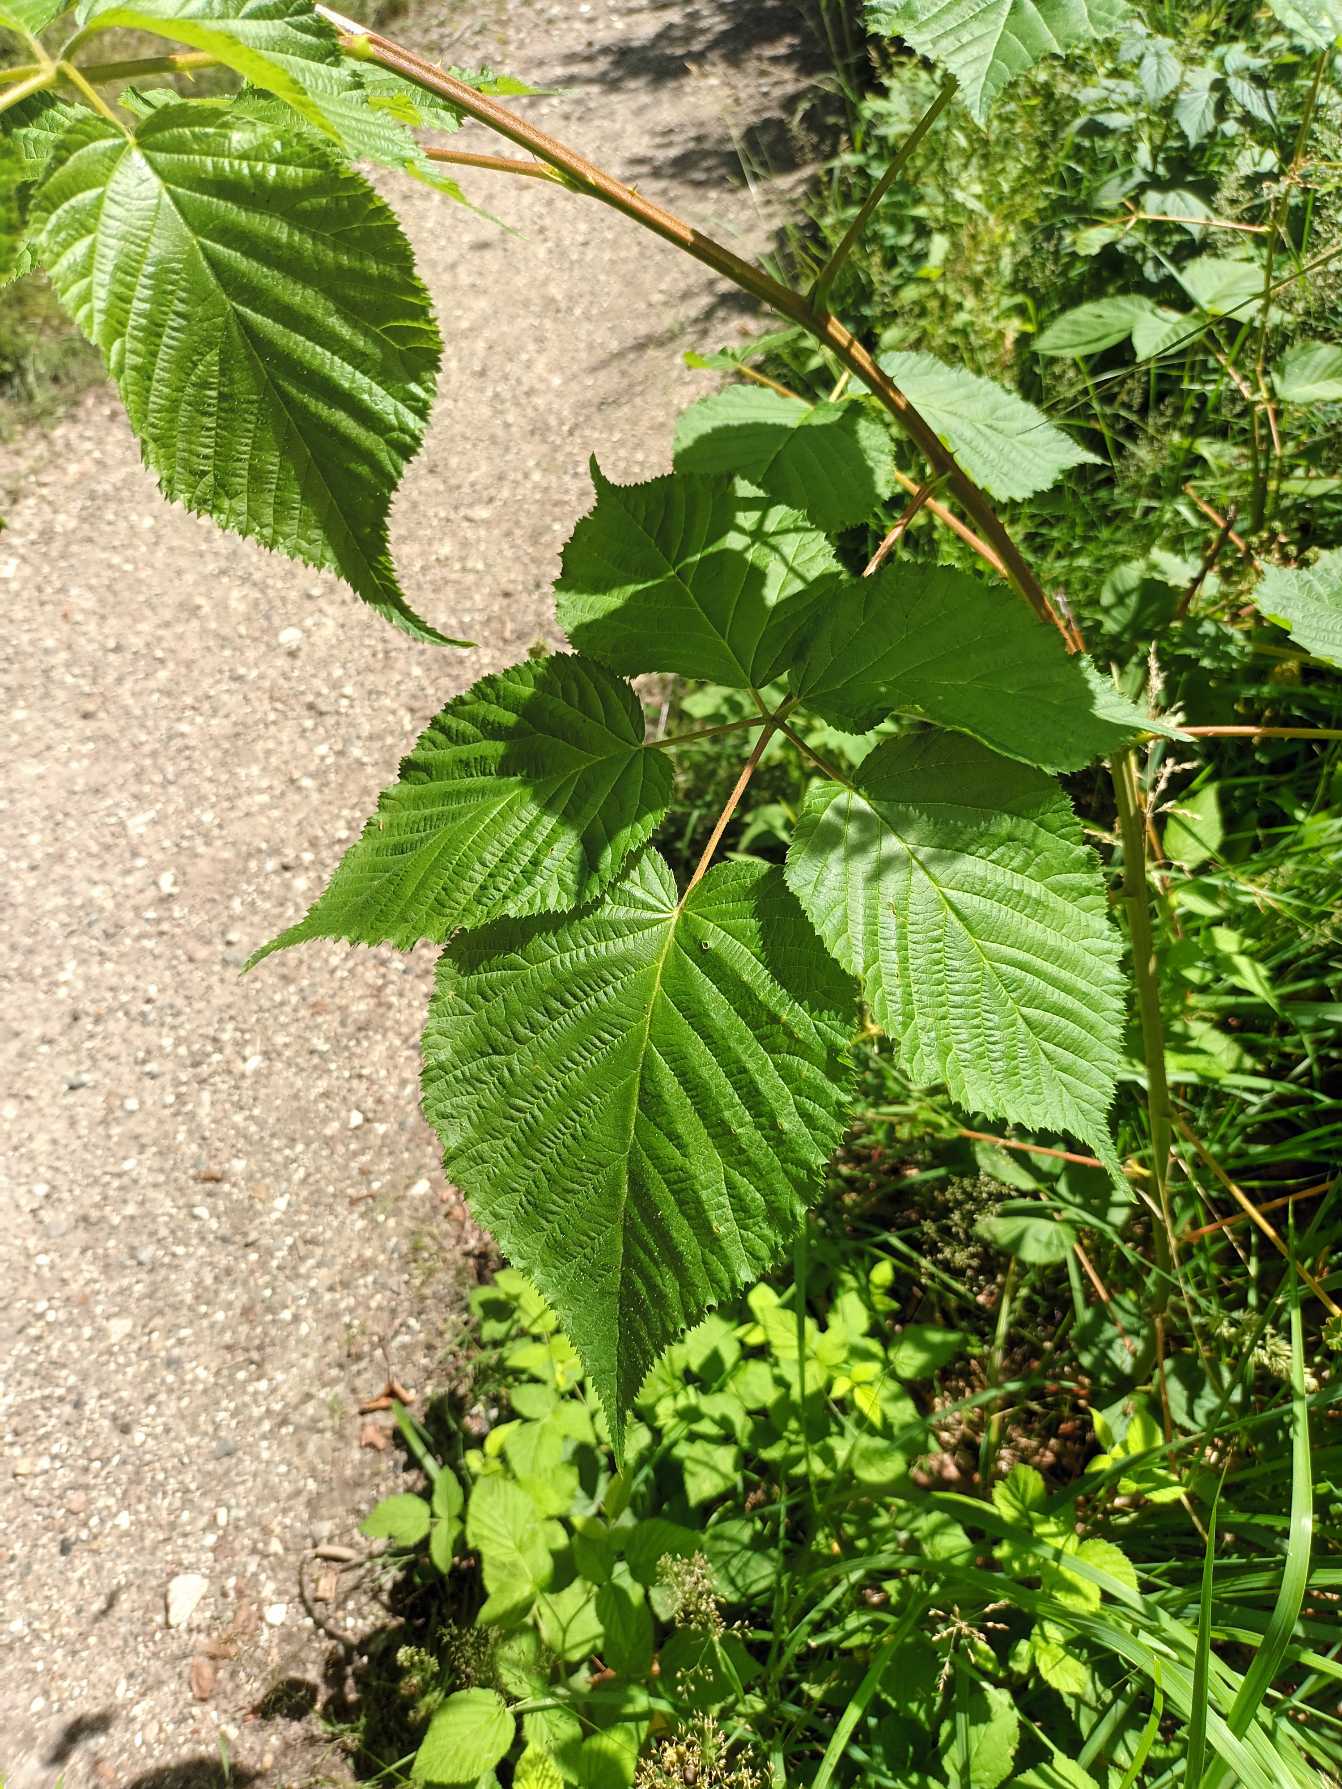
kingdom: Plantae
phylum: Tracheophyta
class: Magnoliopsida
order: Rosales
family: Rosaceae
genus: Rubus
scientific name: Rubus canadensis
